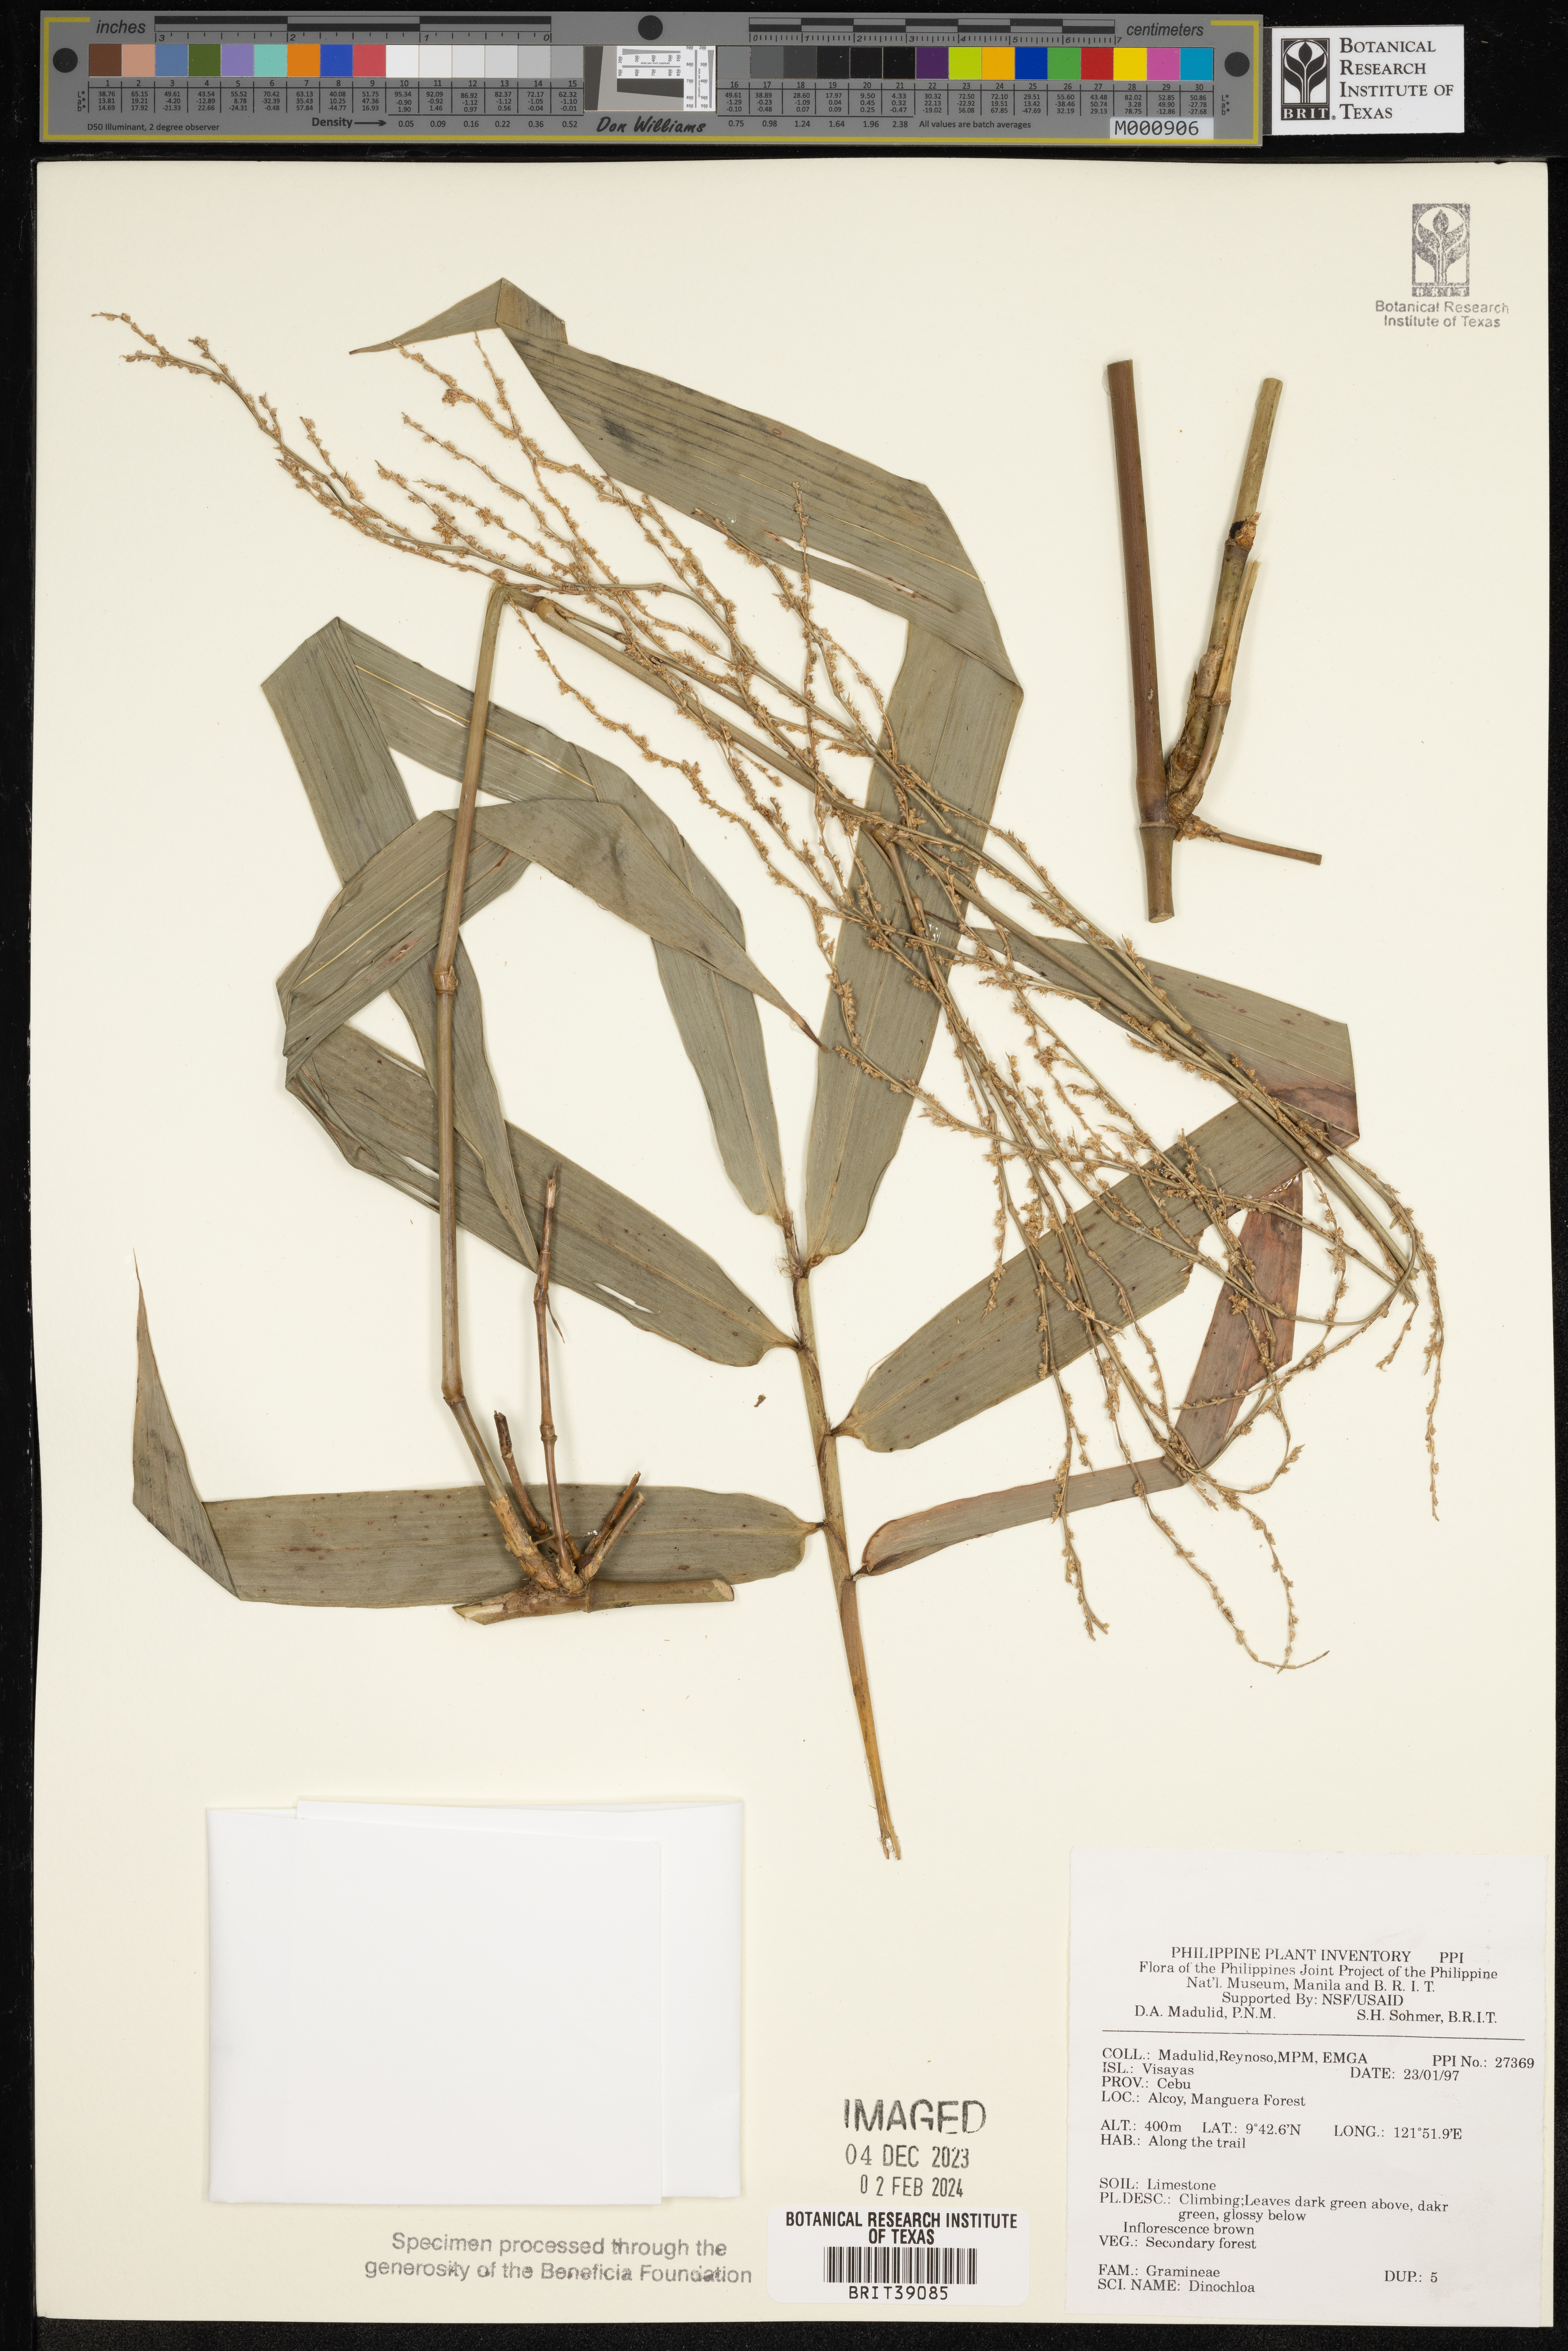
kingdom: Plantae
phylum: Tracheophyta
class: Liliopsida
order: Poales
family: Poaceae
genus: Dinochloa
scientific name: Dinochloa
